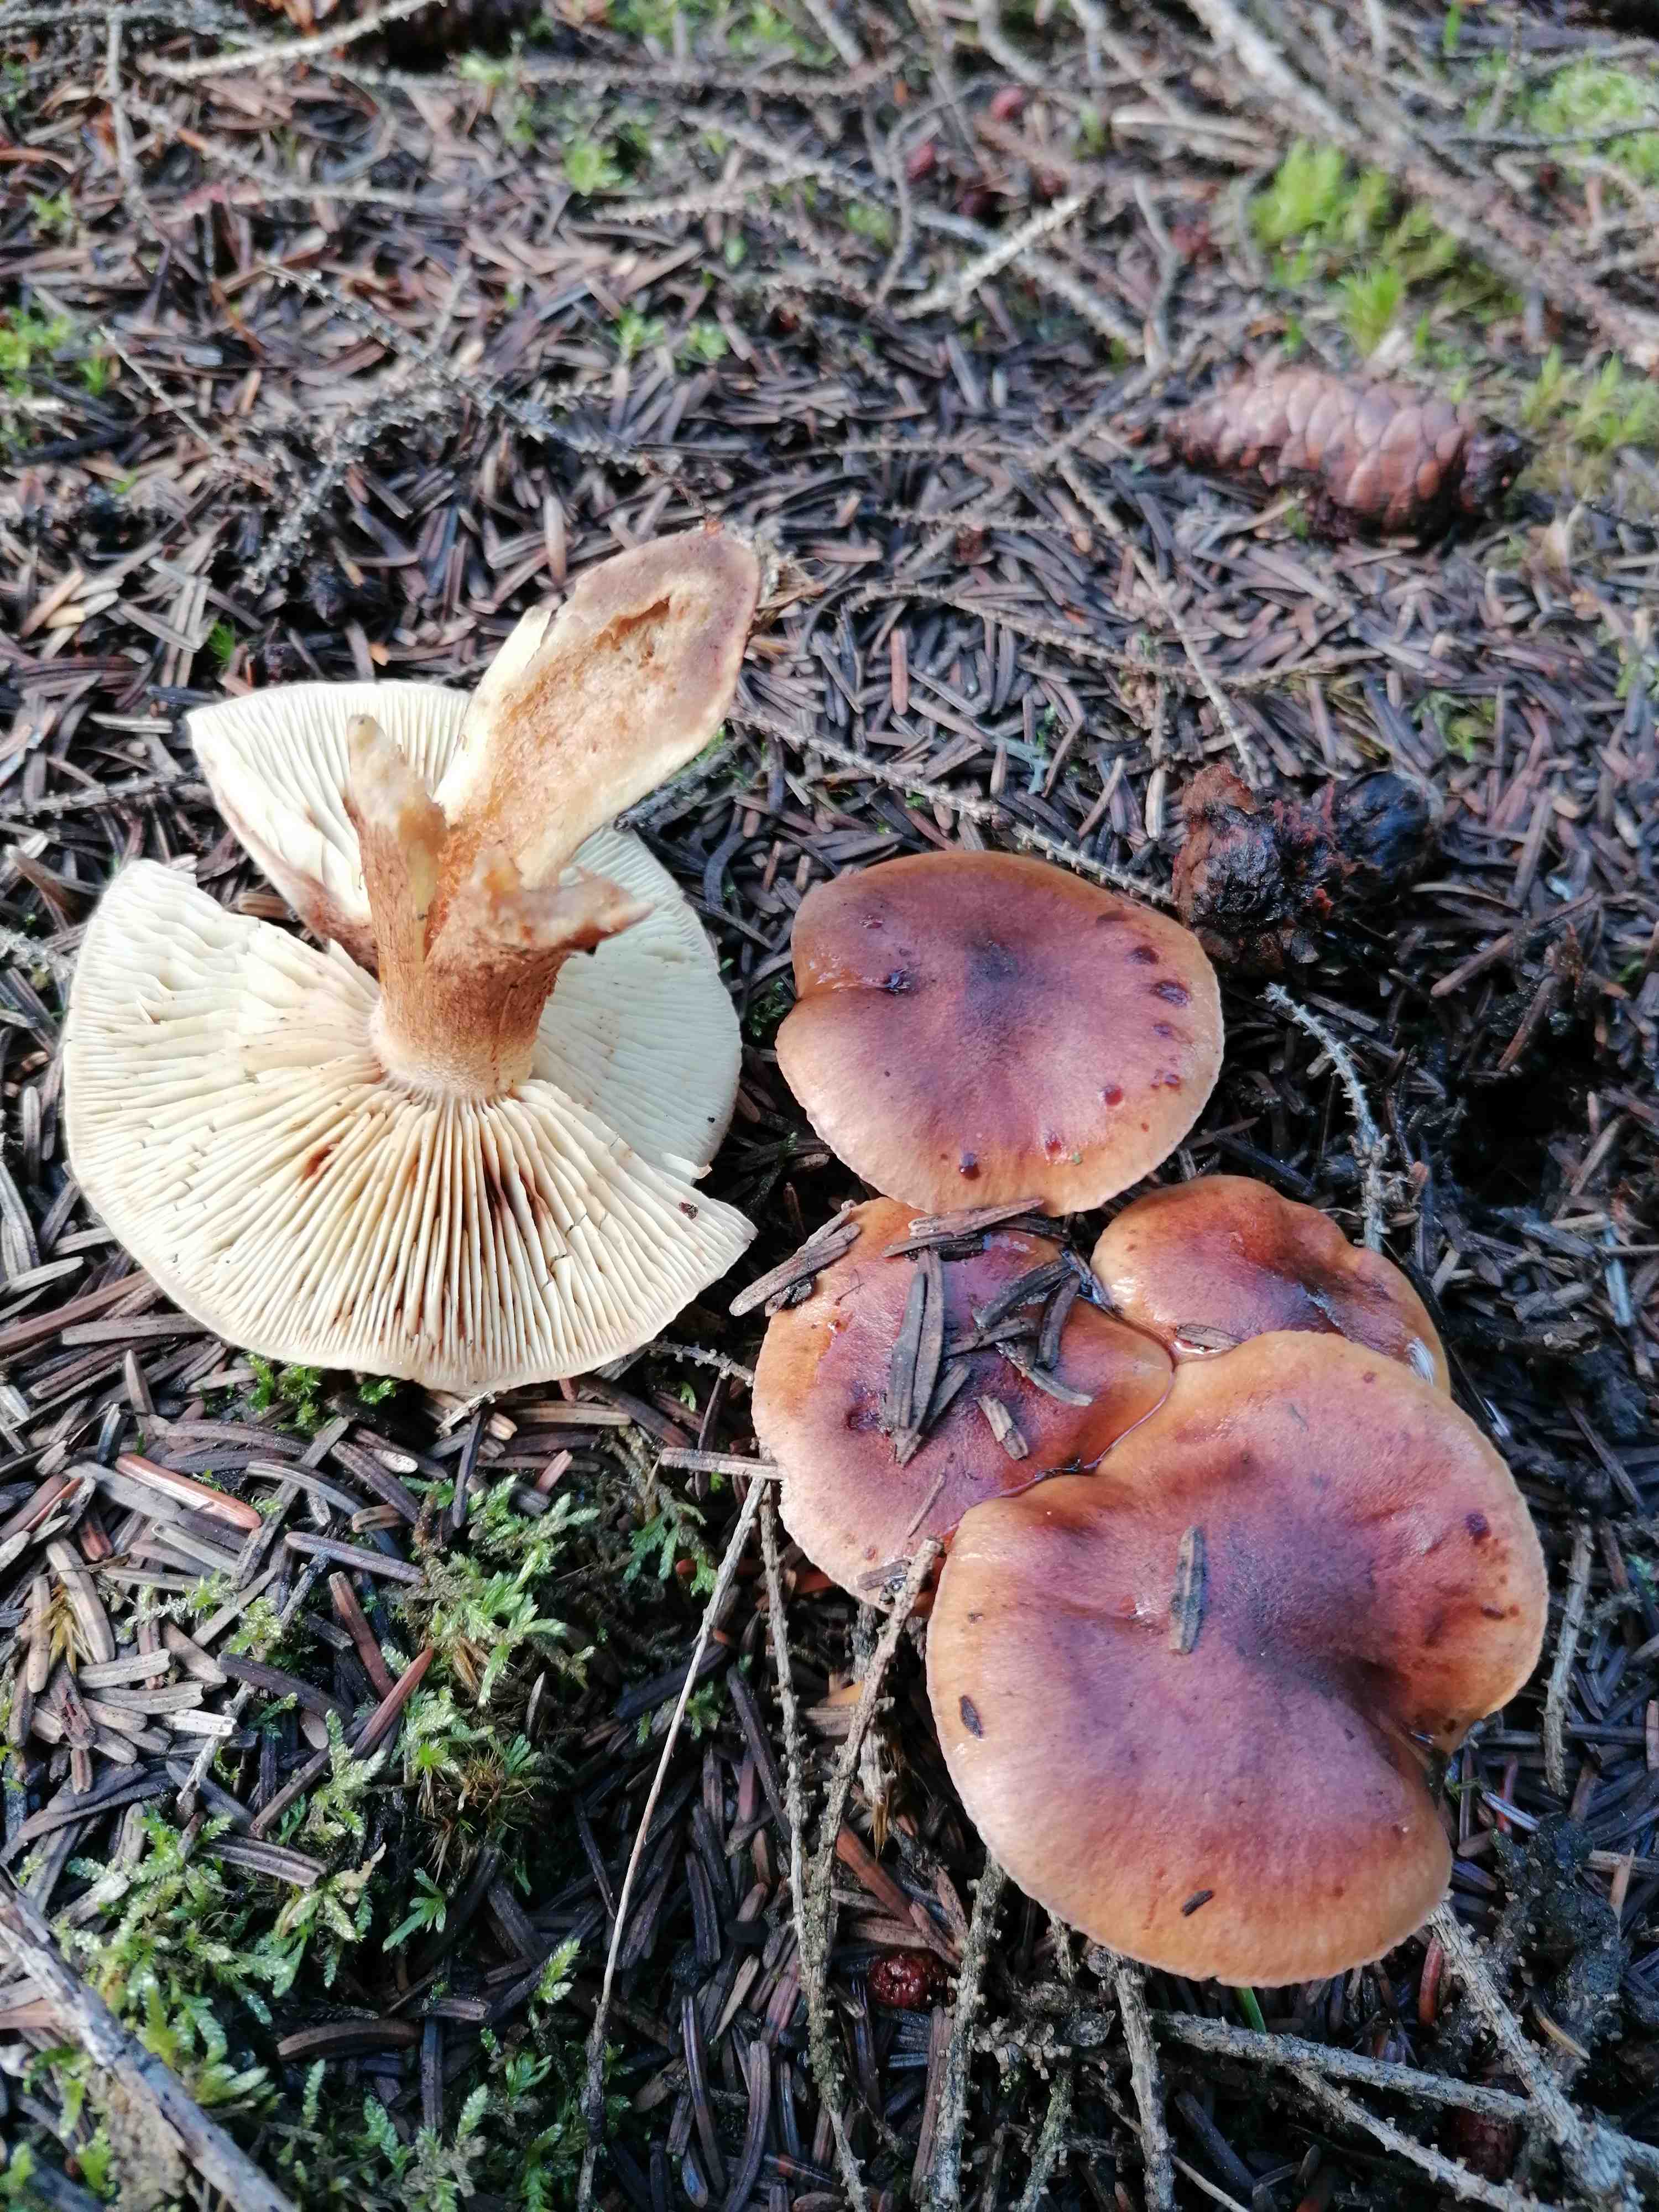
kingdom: Fungi
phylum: Basidiomycota
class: Agaricomycetes
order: Agaricales
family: Tricholomataceae
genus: Tricholoma
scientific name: Tricholoma fulvum
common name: birke-ridderhat
